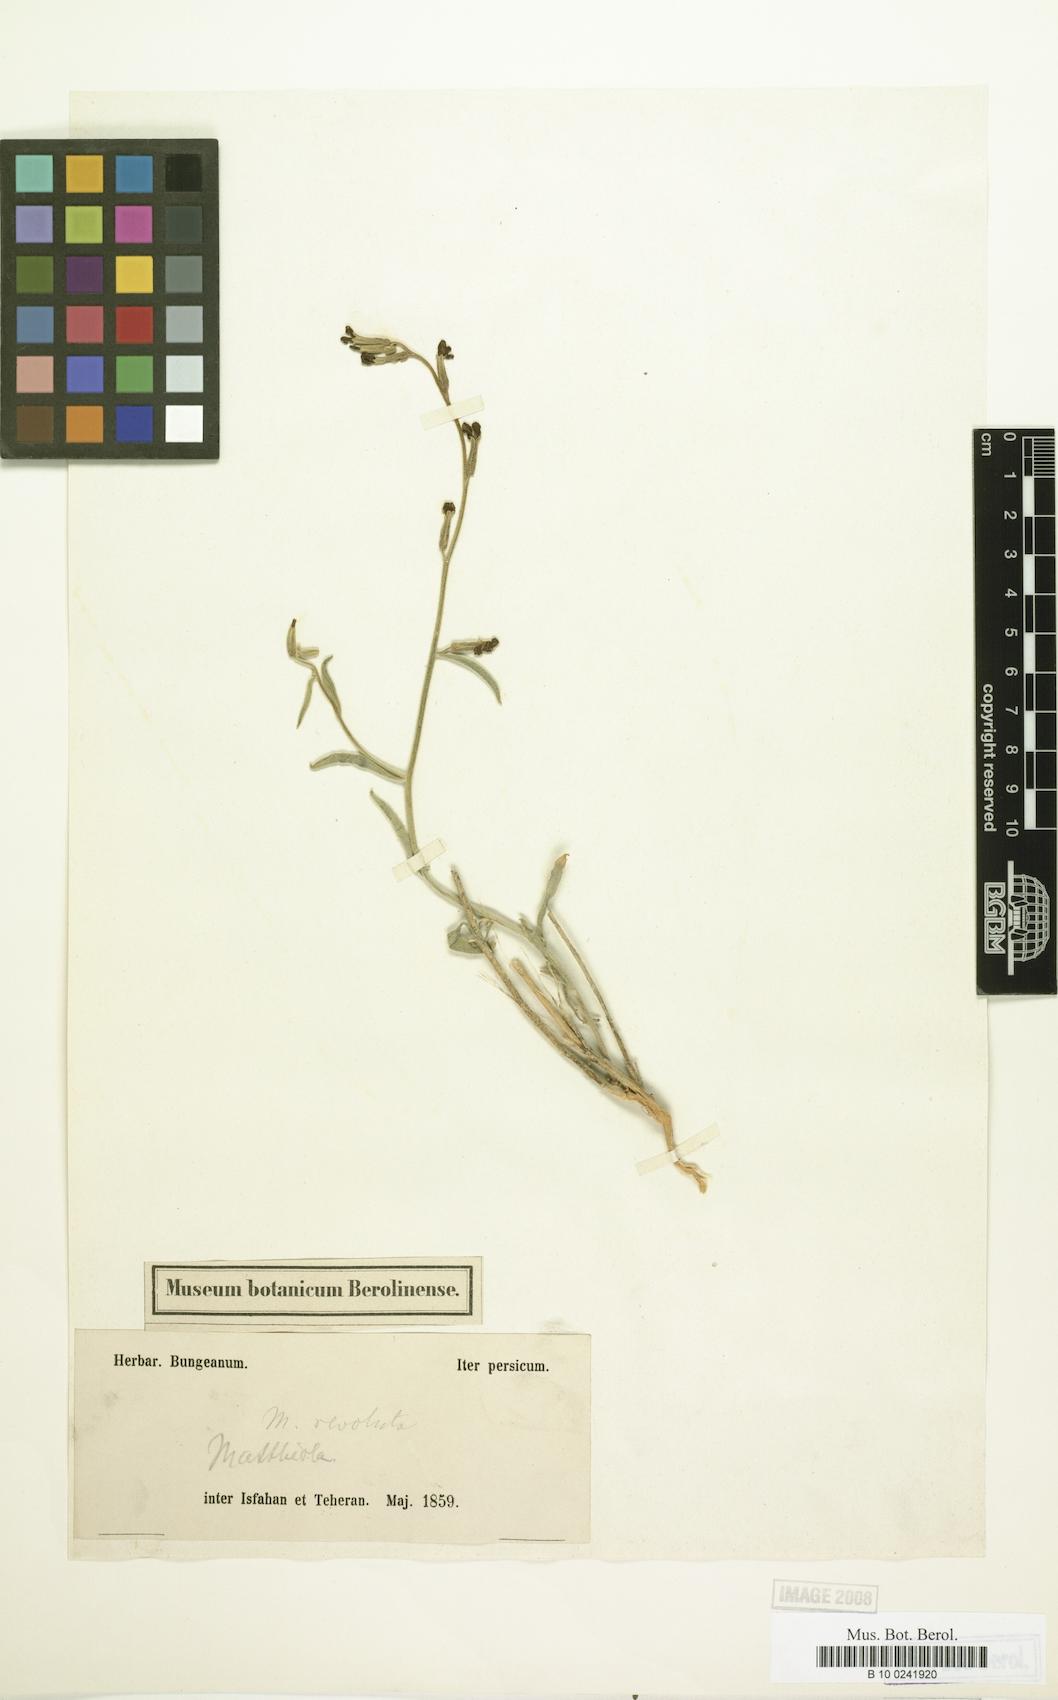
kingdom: Plantae
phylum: Tracheophyta
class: Magnoliopsida
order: Brassicales
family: Brassicaceae
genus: Matthiola
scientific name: Matthiola revoluta
